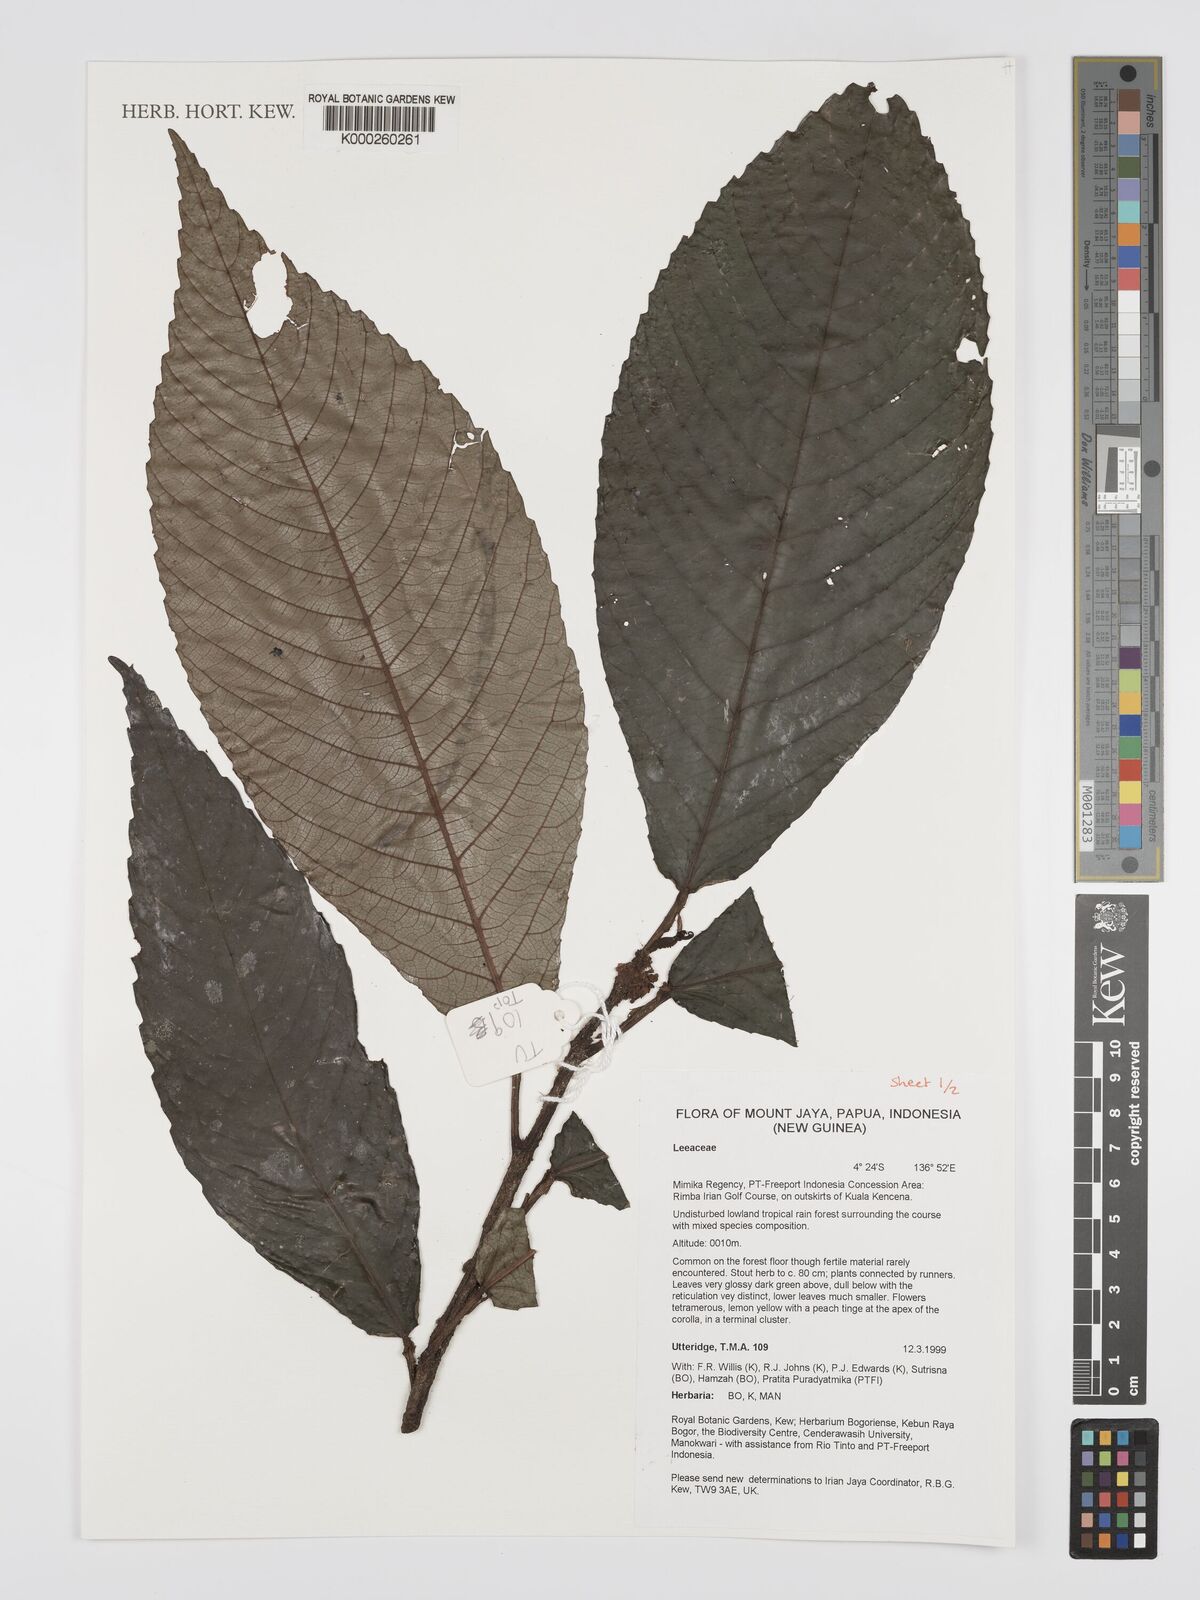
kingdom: Plantae
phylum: Tracheophyta
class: Magnoliopsida
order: Vitales
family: Vitaceae
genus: Leea
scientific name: Leea
